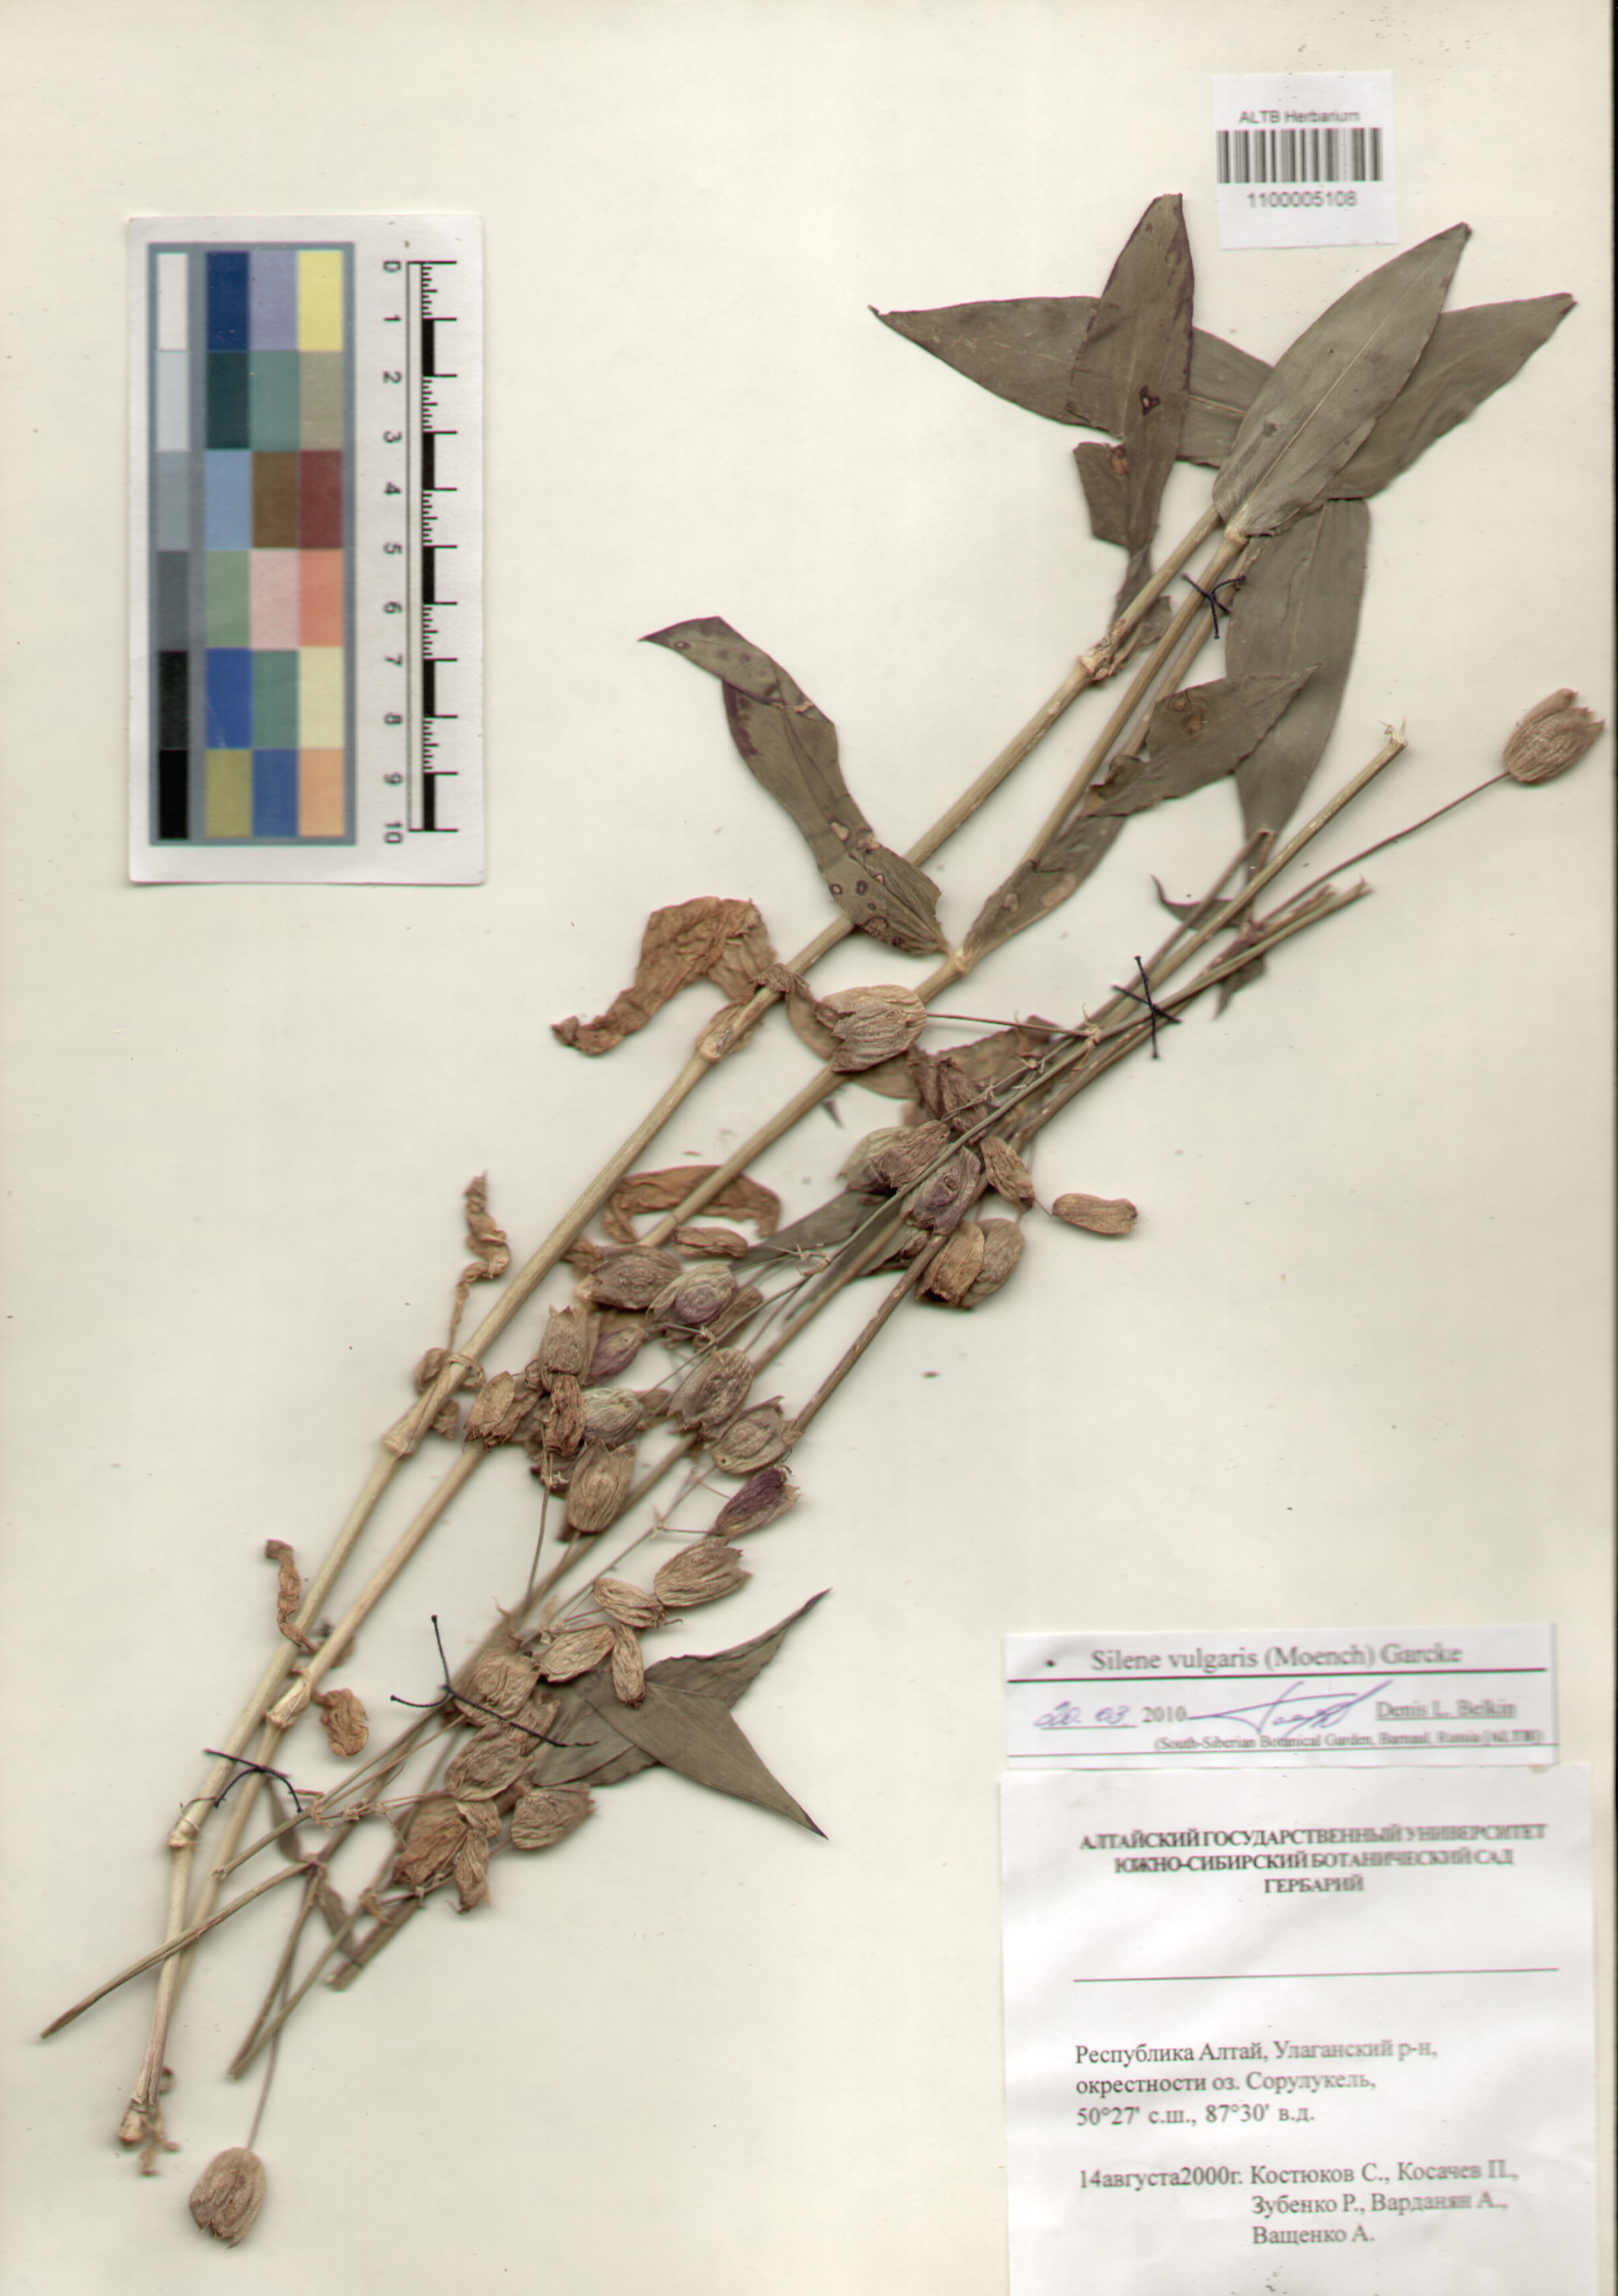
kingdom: Plantae
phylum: Tracheophyta
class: Magnoliopsida
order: Caryophyllales
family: Caryophyllaceae
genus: Silene
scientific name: Silene vulgaris
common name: Bladder campion
